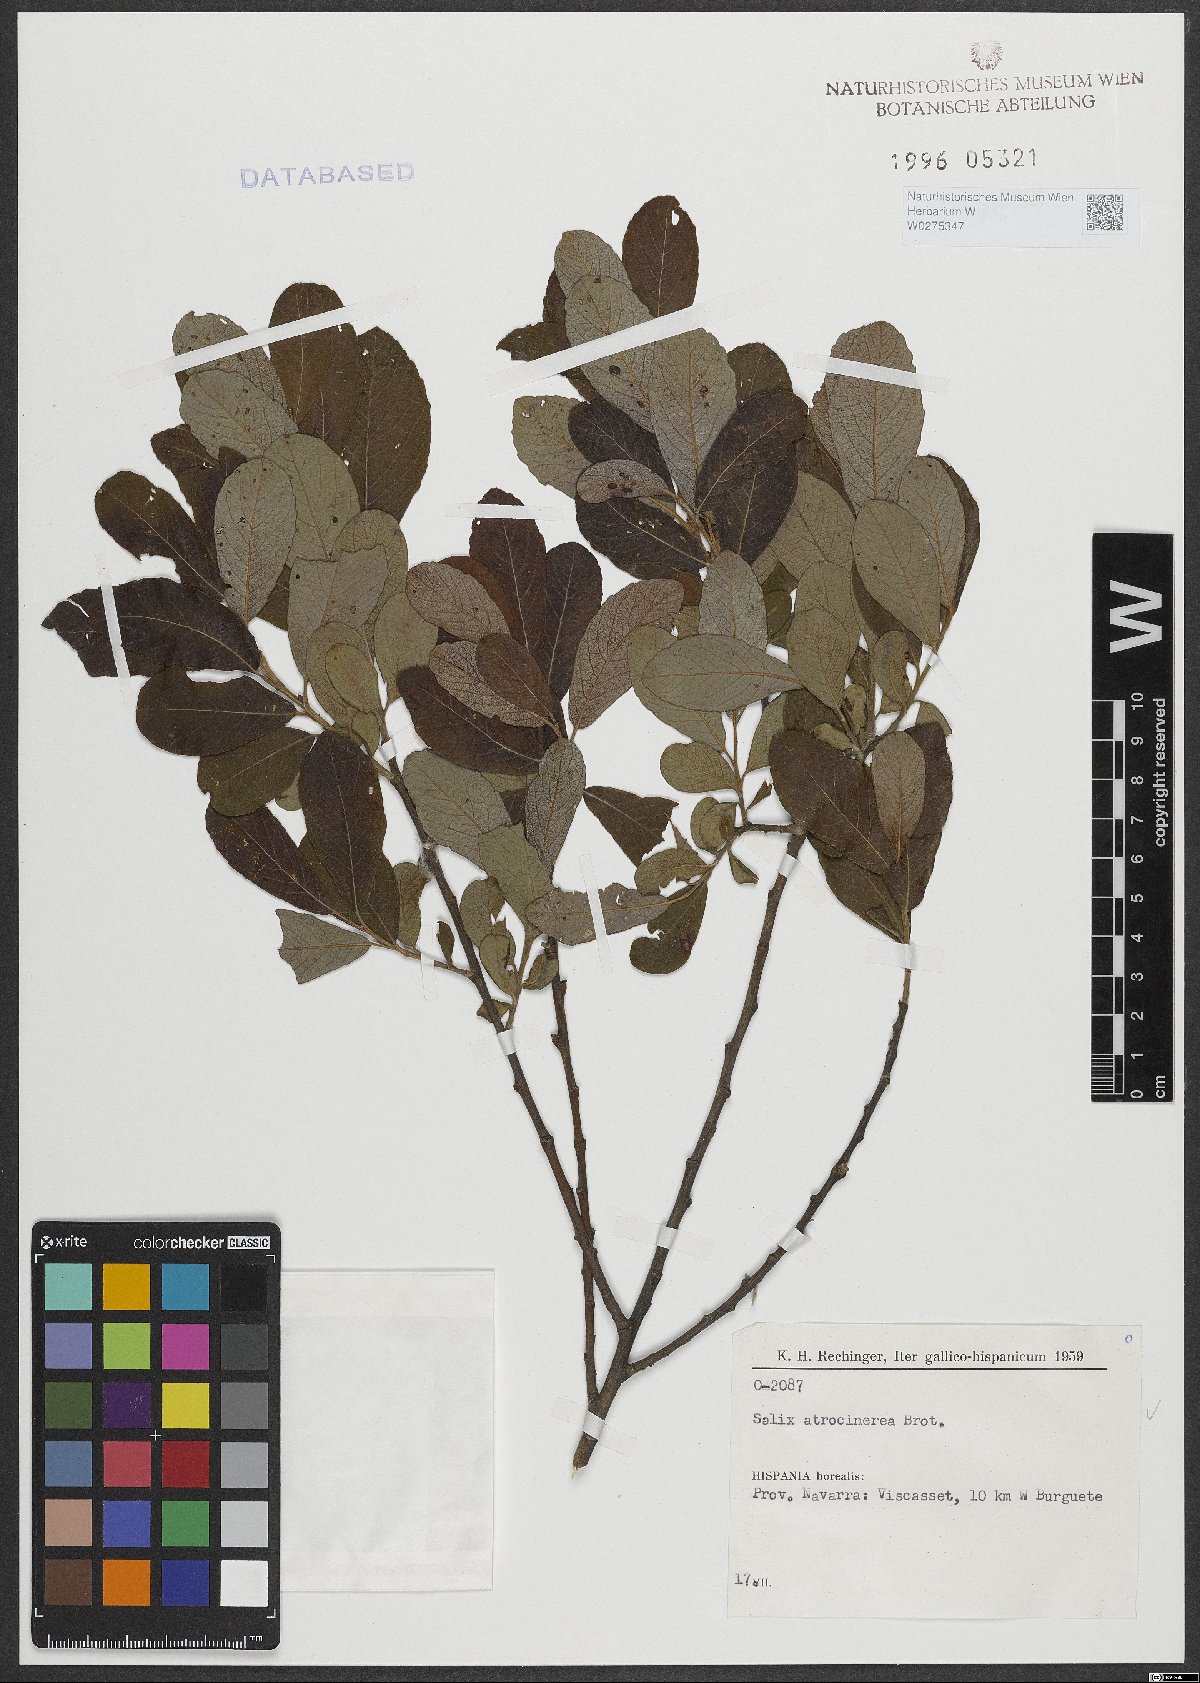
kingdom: Plantae
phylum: Tracheophyta
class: Magnoliopsida
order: Malpighiales
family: Salicaceae
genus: Salix
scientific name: Salix atrocinerea
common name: Rusty willow
